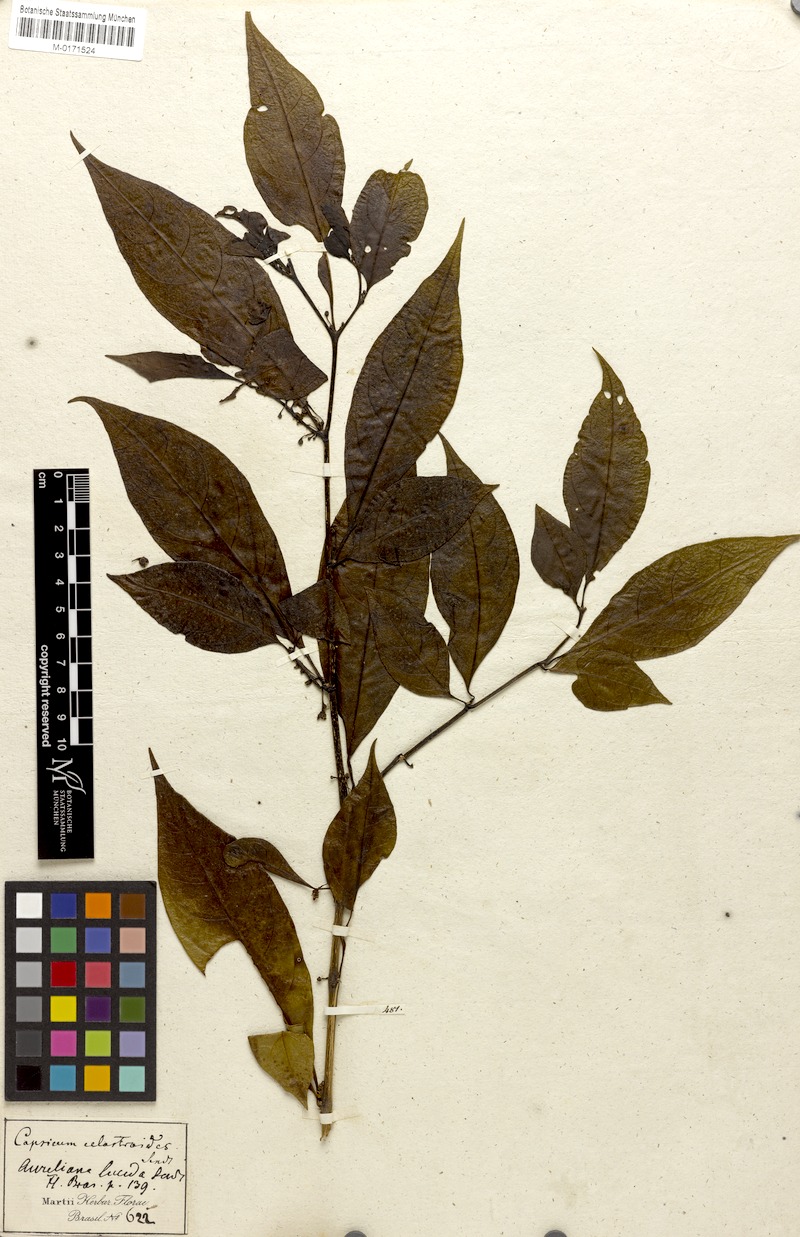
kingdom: Plantae
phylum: Tracheophyta
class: Magnoliopsida
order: Solanales
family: Solanaceae
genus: Athenaea
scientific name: Athenaea fasciculata
